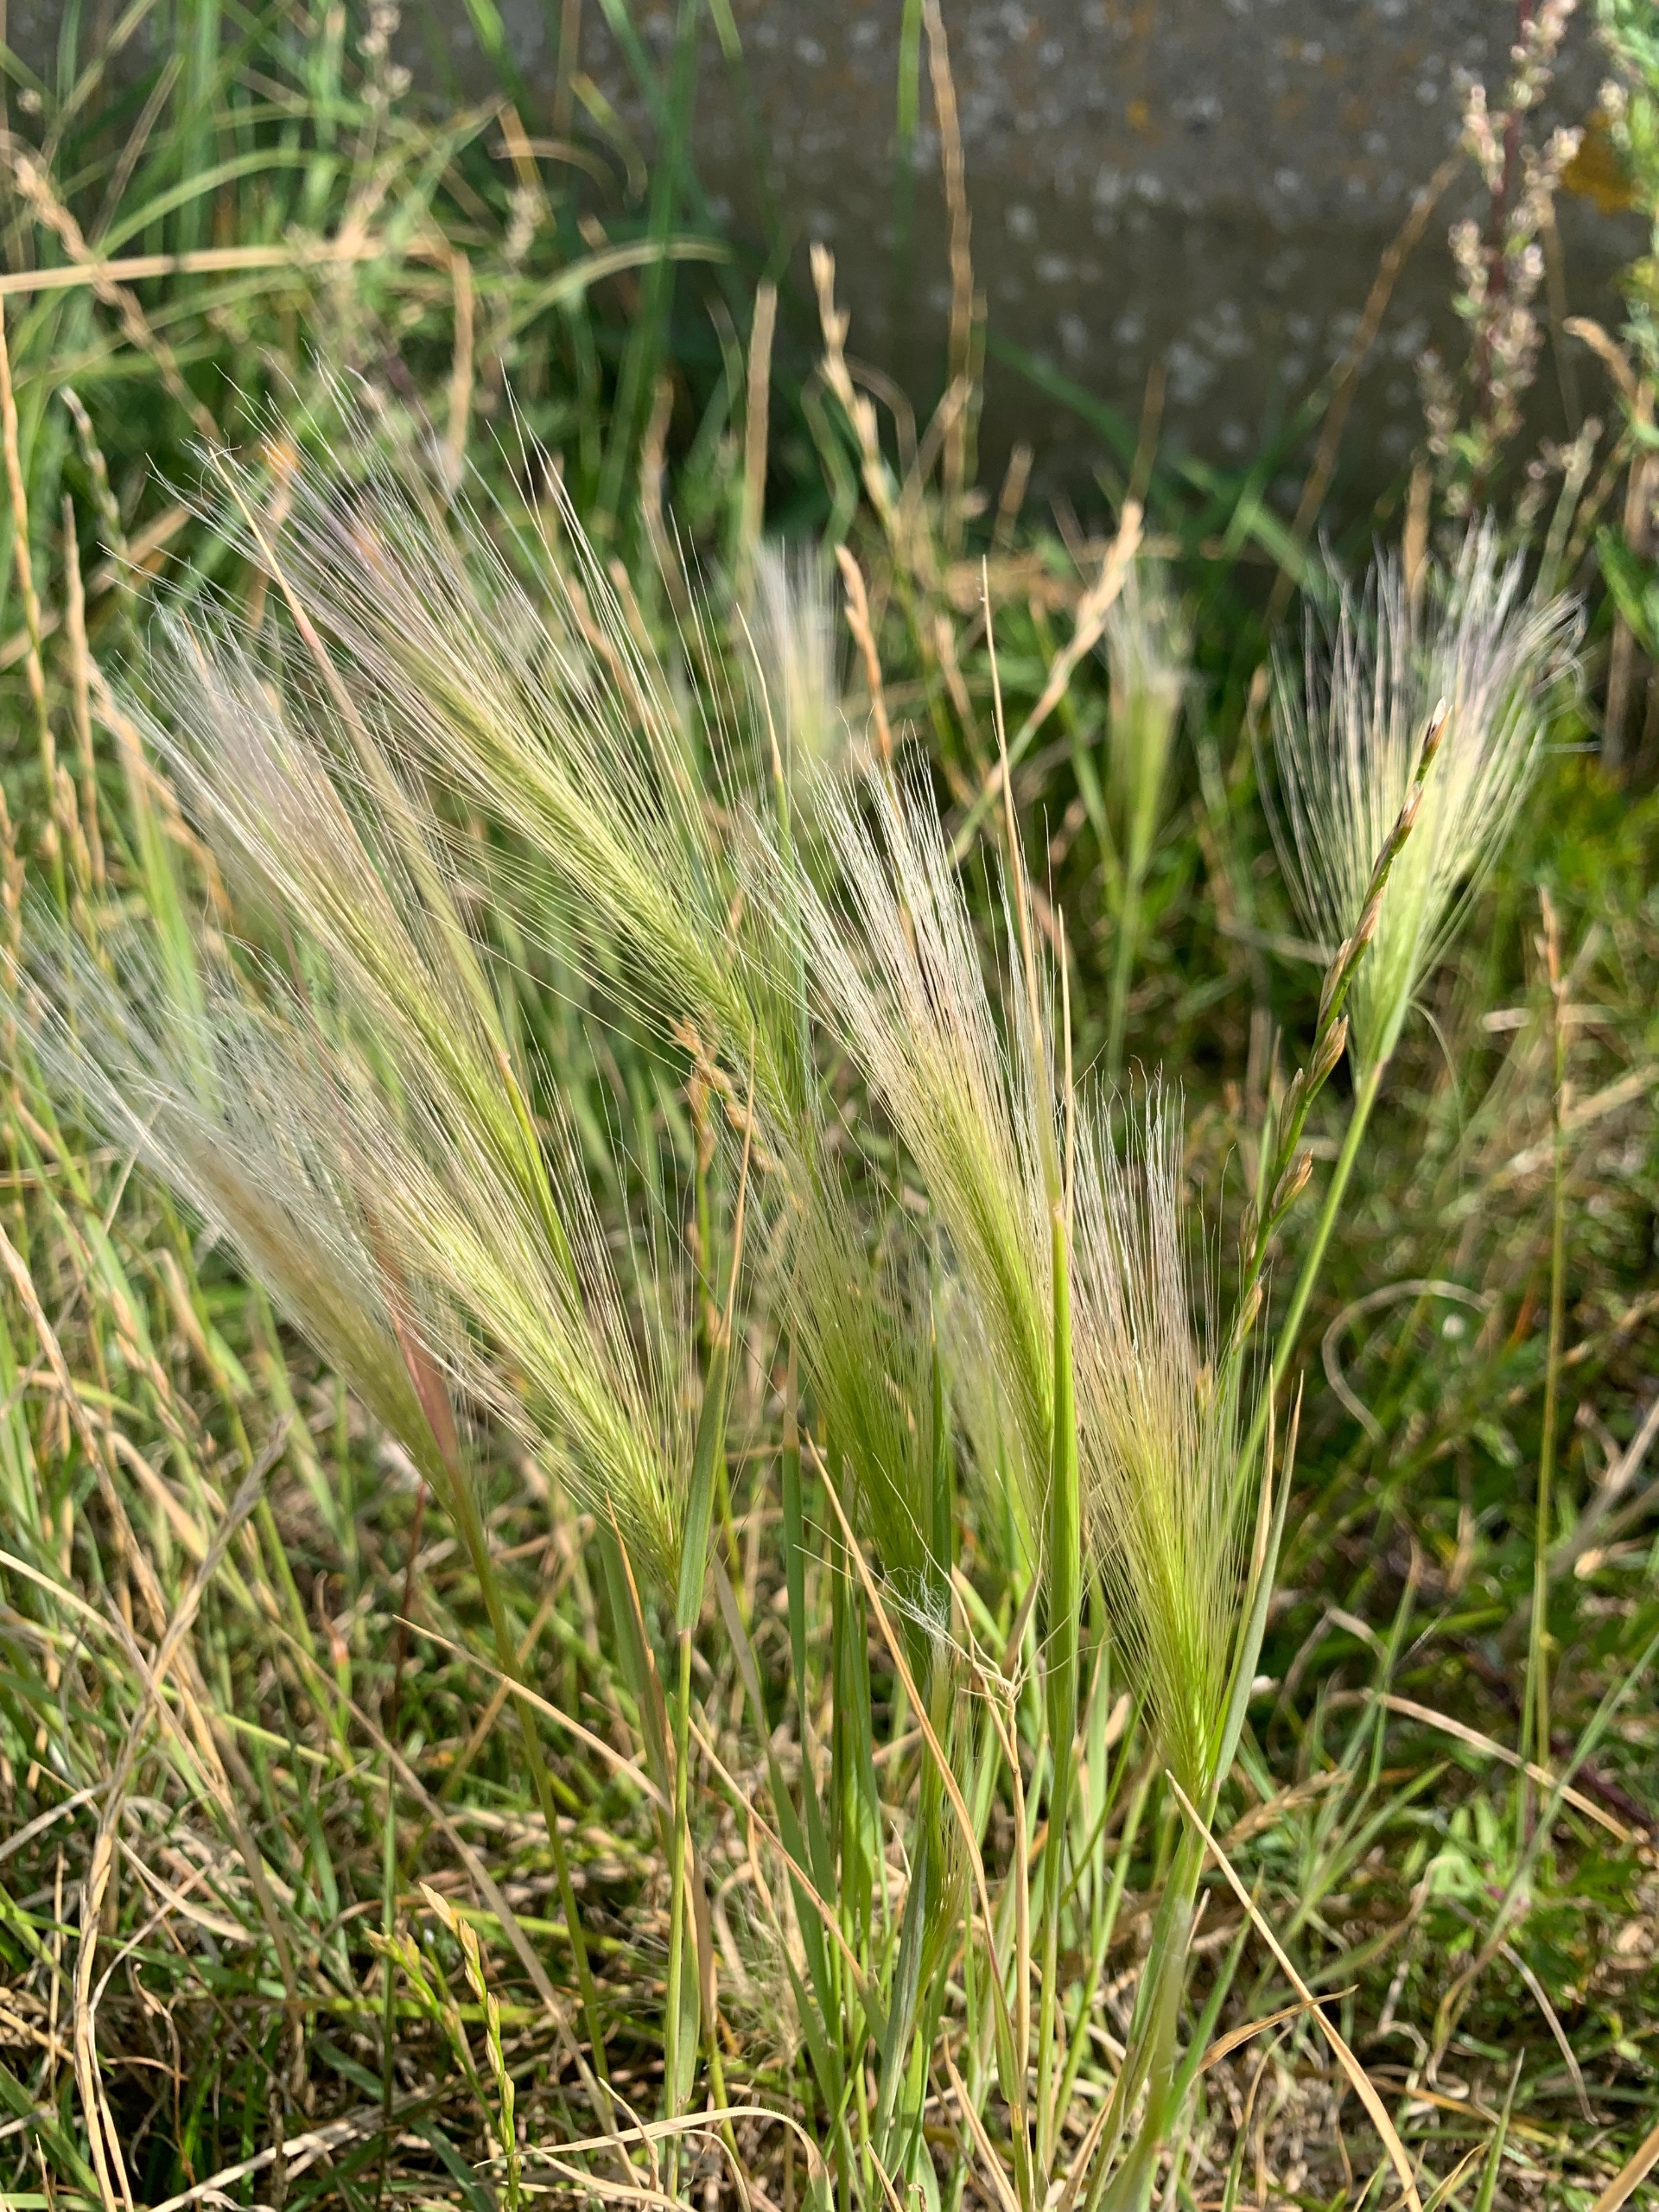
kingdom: Plantae
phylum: Tracheophyta
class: Liliopsida
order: Poales
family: Poaceae
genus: Hordeum
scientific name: Hordeum jubatum
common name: Egernhale-byg
